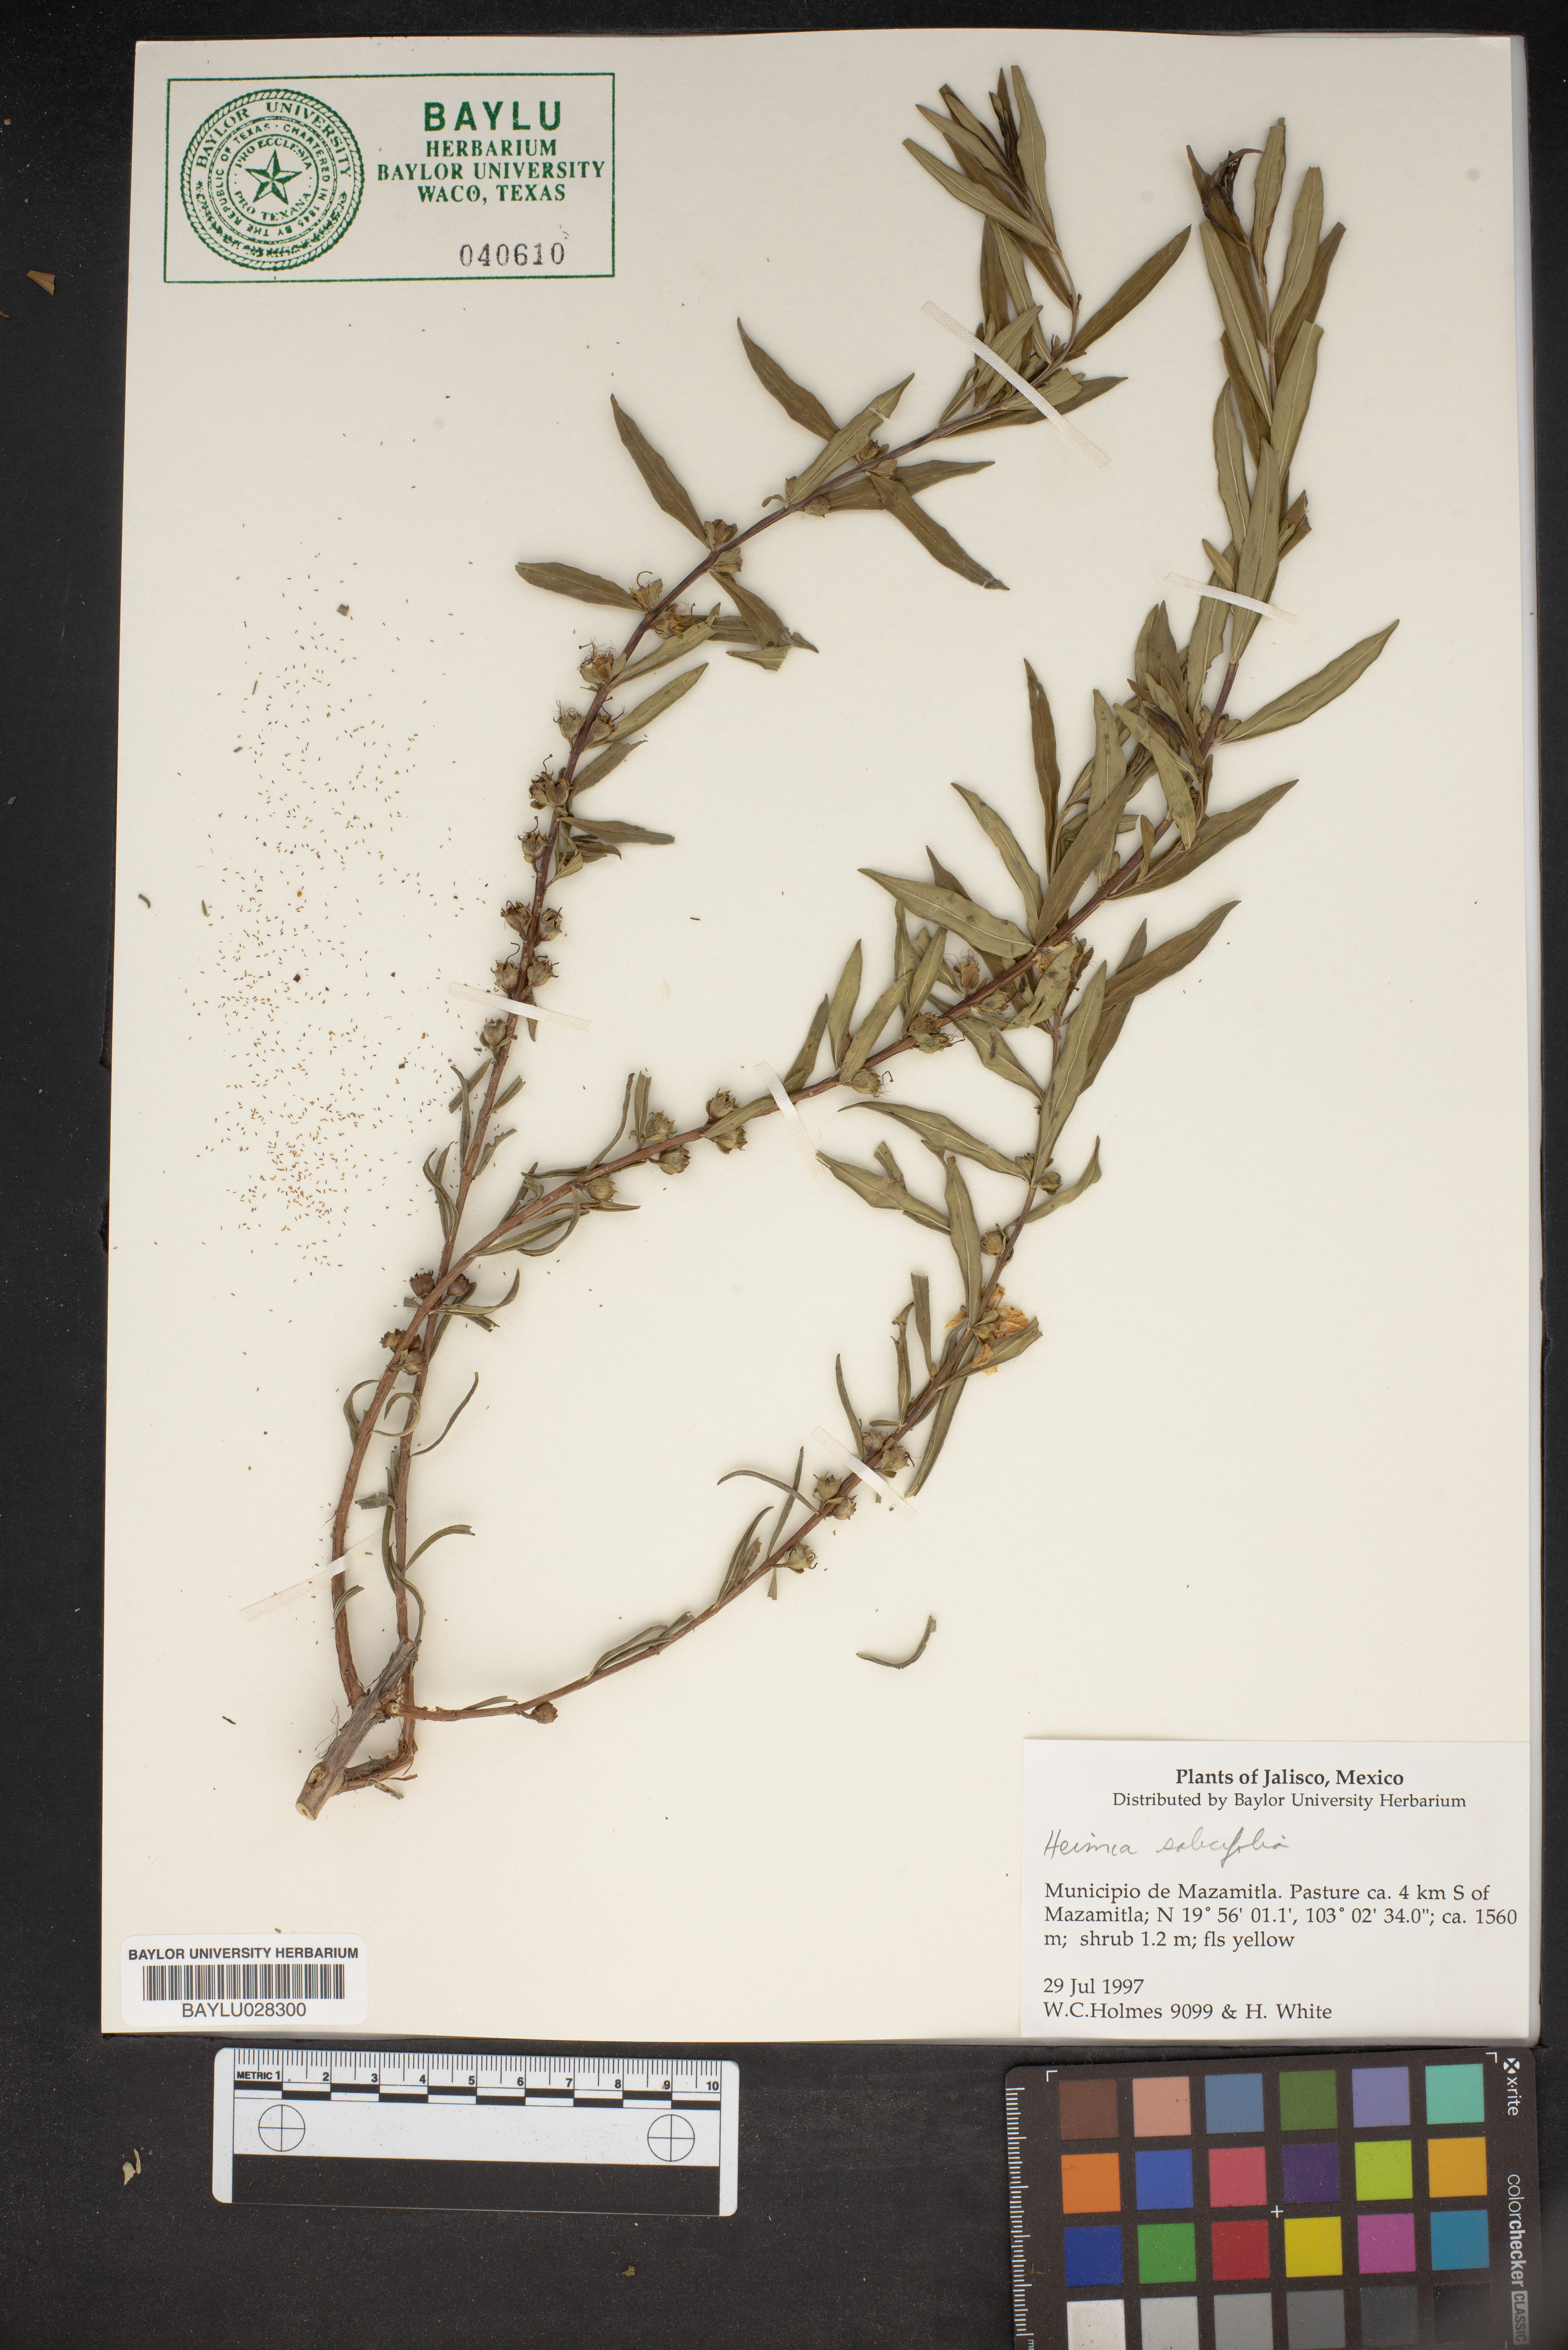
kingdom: Plantae
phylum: Tracheophyta
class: Magnoliopsida
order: Myrtales
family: Lythraceae
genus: Heimia
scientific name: Heimia salicifolia
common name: Willow-leaf heimia
